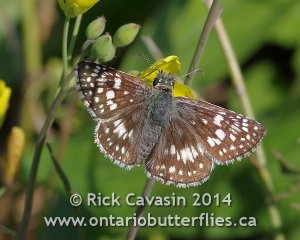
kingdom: Animalia
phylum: Arthropoda
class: Insecta
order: Lepidoptera
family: Hesperiidae
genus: Pyrgus
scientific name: Pyrgus communis
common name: Common Checkered-Skipper
